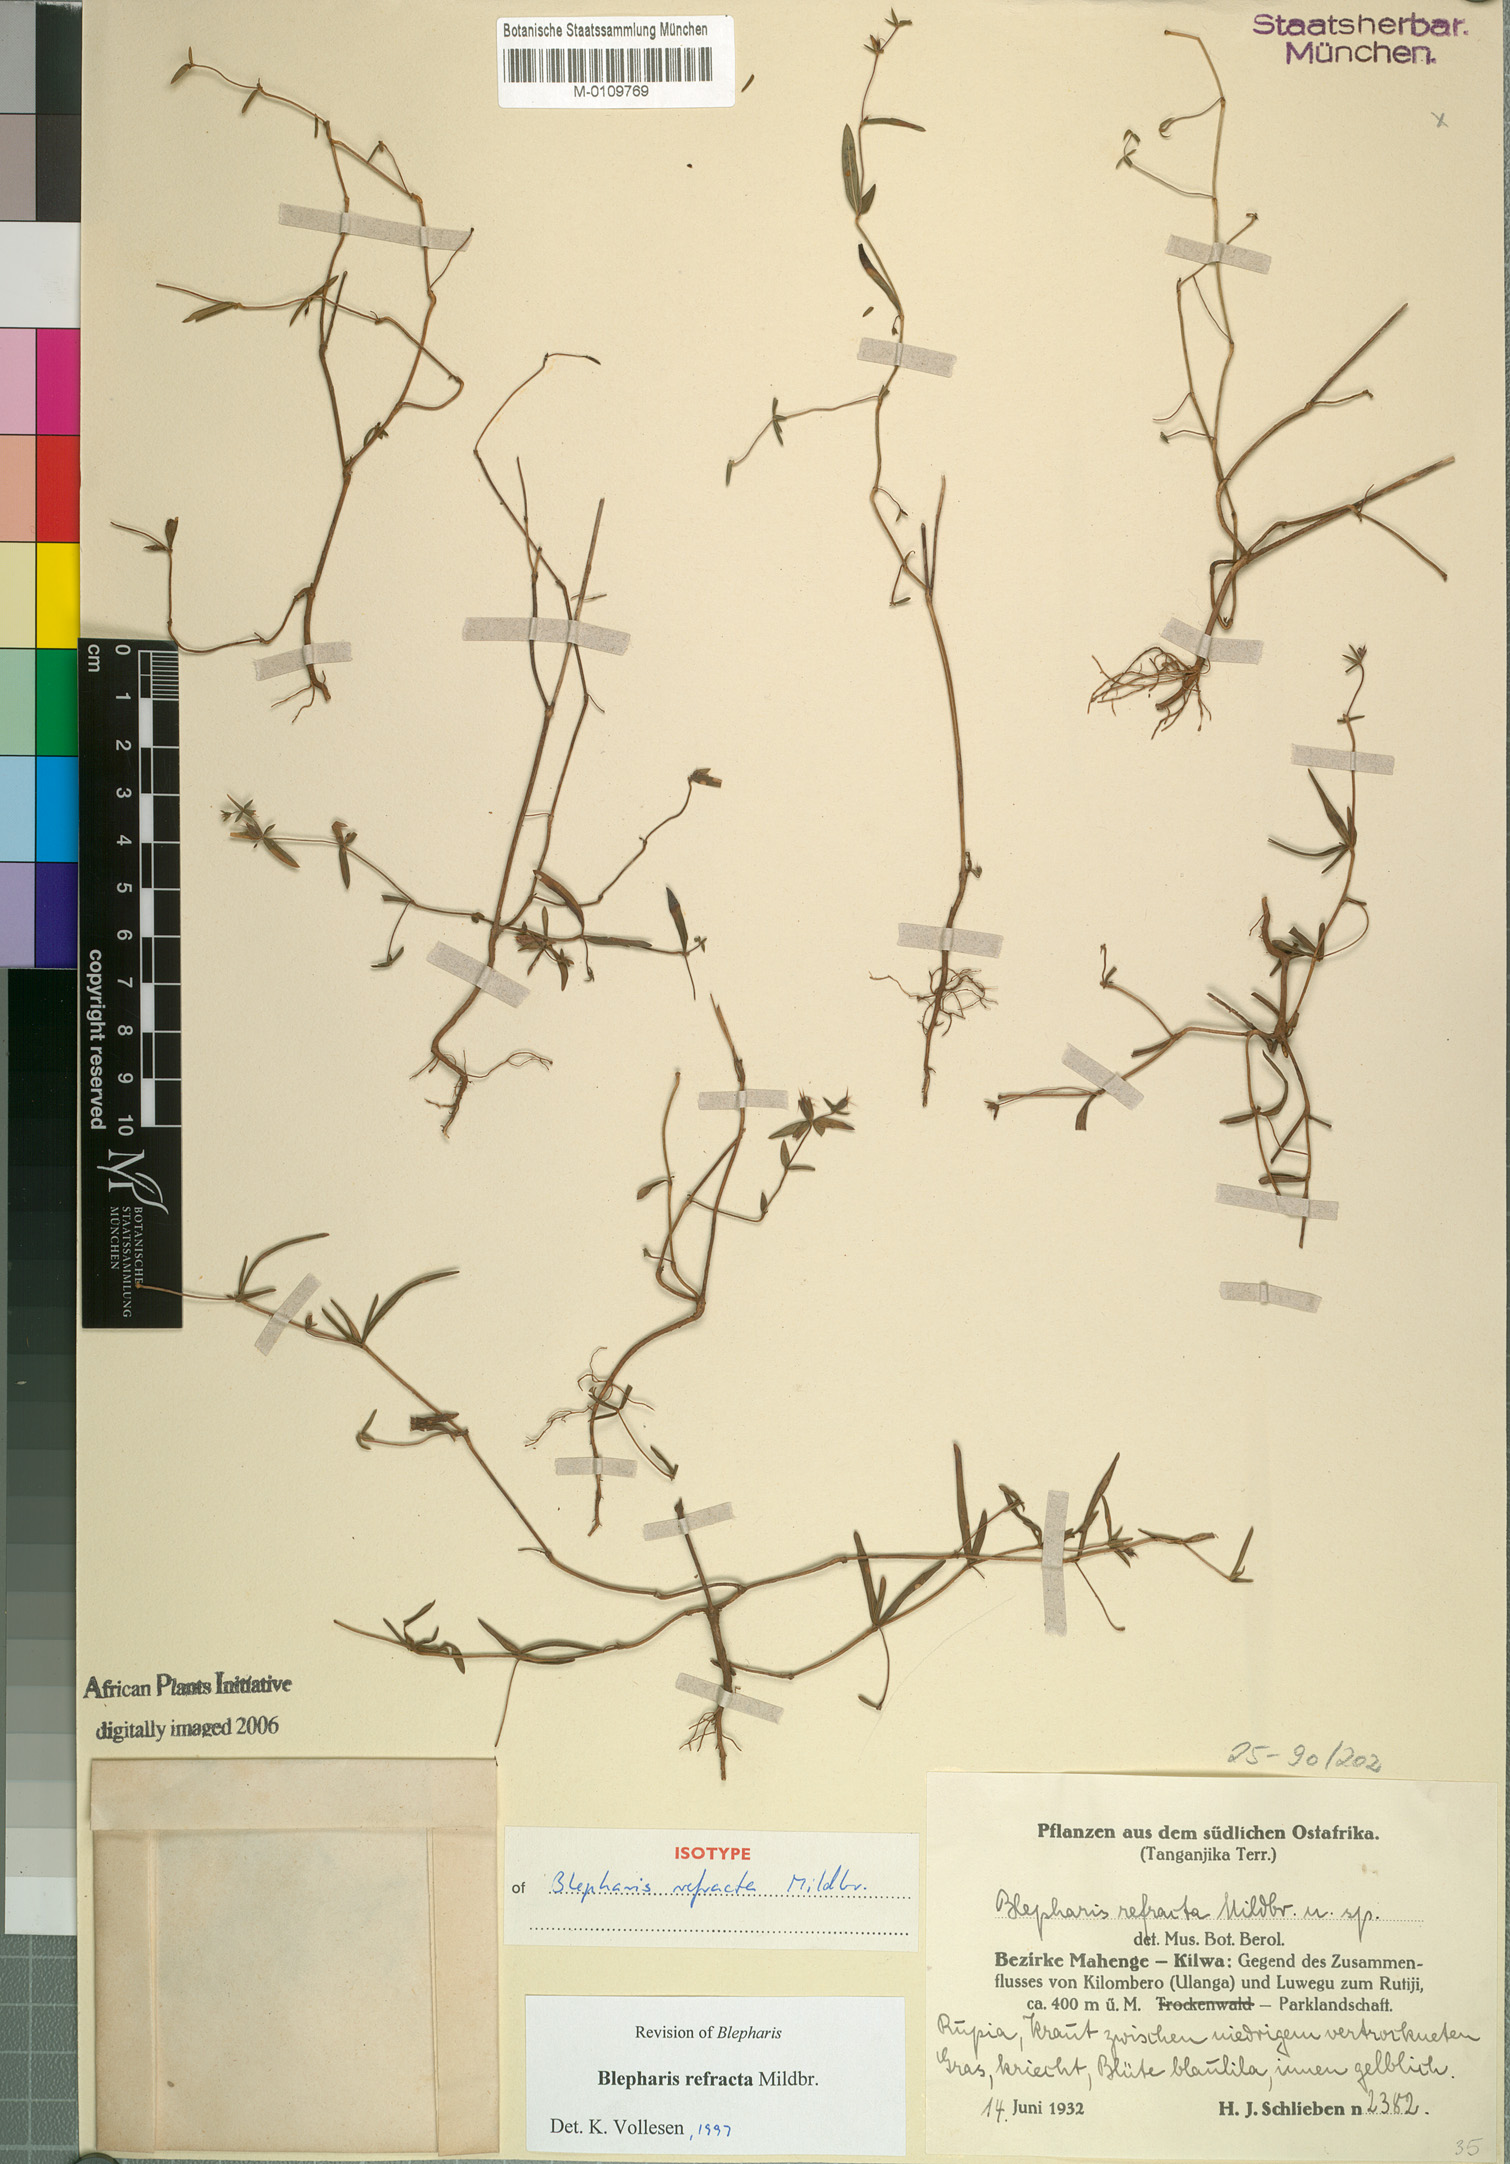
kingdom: Plantae
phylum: Tracheophyta
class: Magnoliopsida
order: Lamiales
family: Acanthaceae
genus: Blepharis
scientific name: Blepharis refracta
